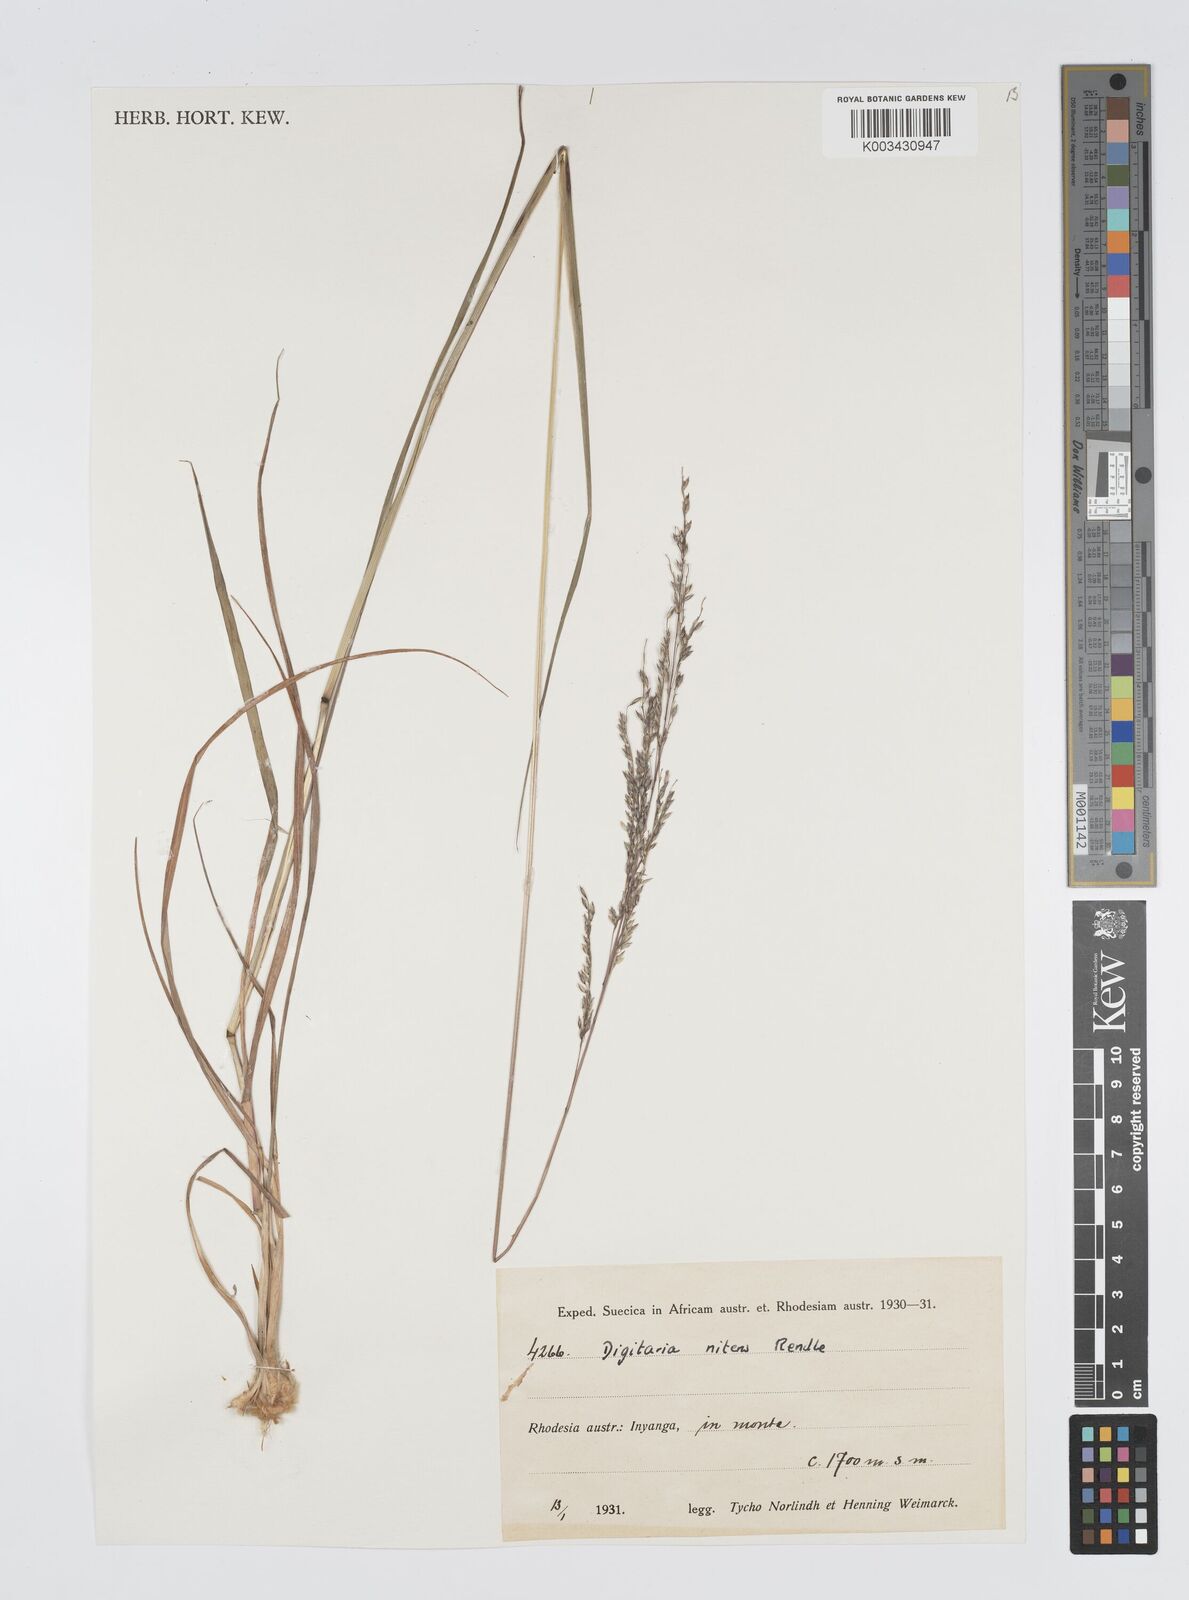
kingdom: Plantae
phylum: Tracheophyta
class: Liliopsida
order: Poales
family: Poaceae
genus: Digitaria
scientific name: Digitaria flaccida
